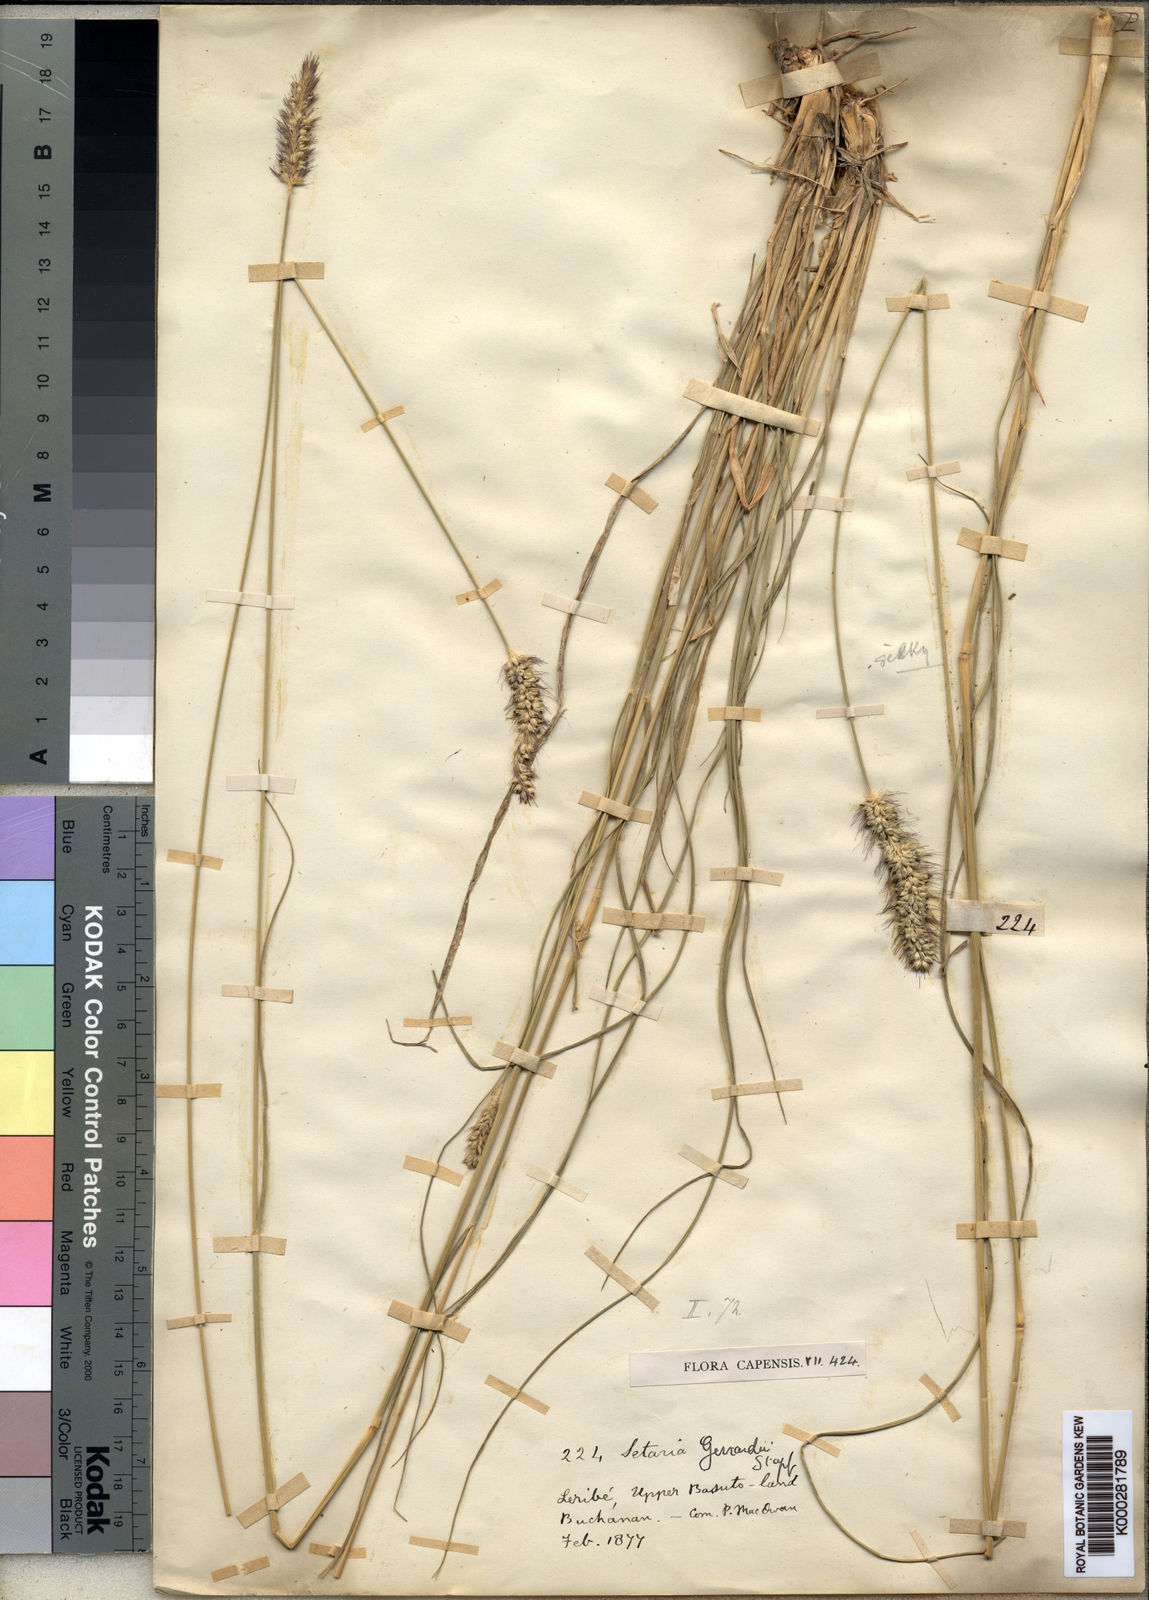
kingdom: Plantae
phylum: Tracheophyta
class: Liliopsida
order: Poales
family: Poaceae
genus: Setaria
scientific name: Setaria incrassata
